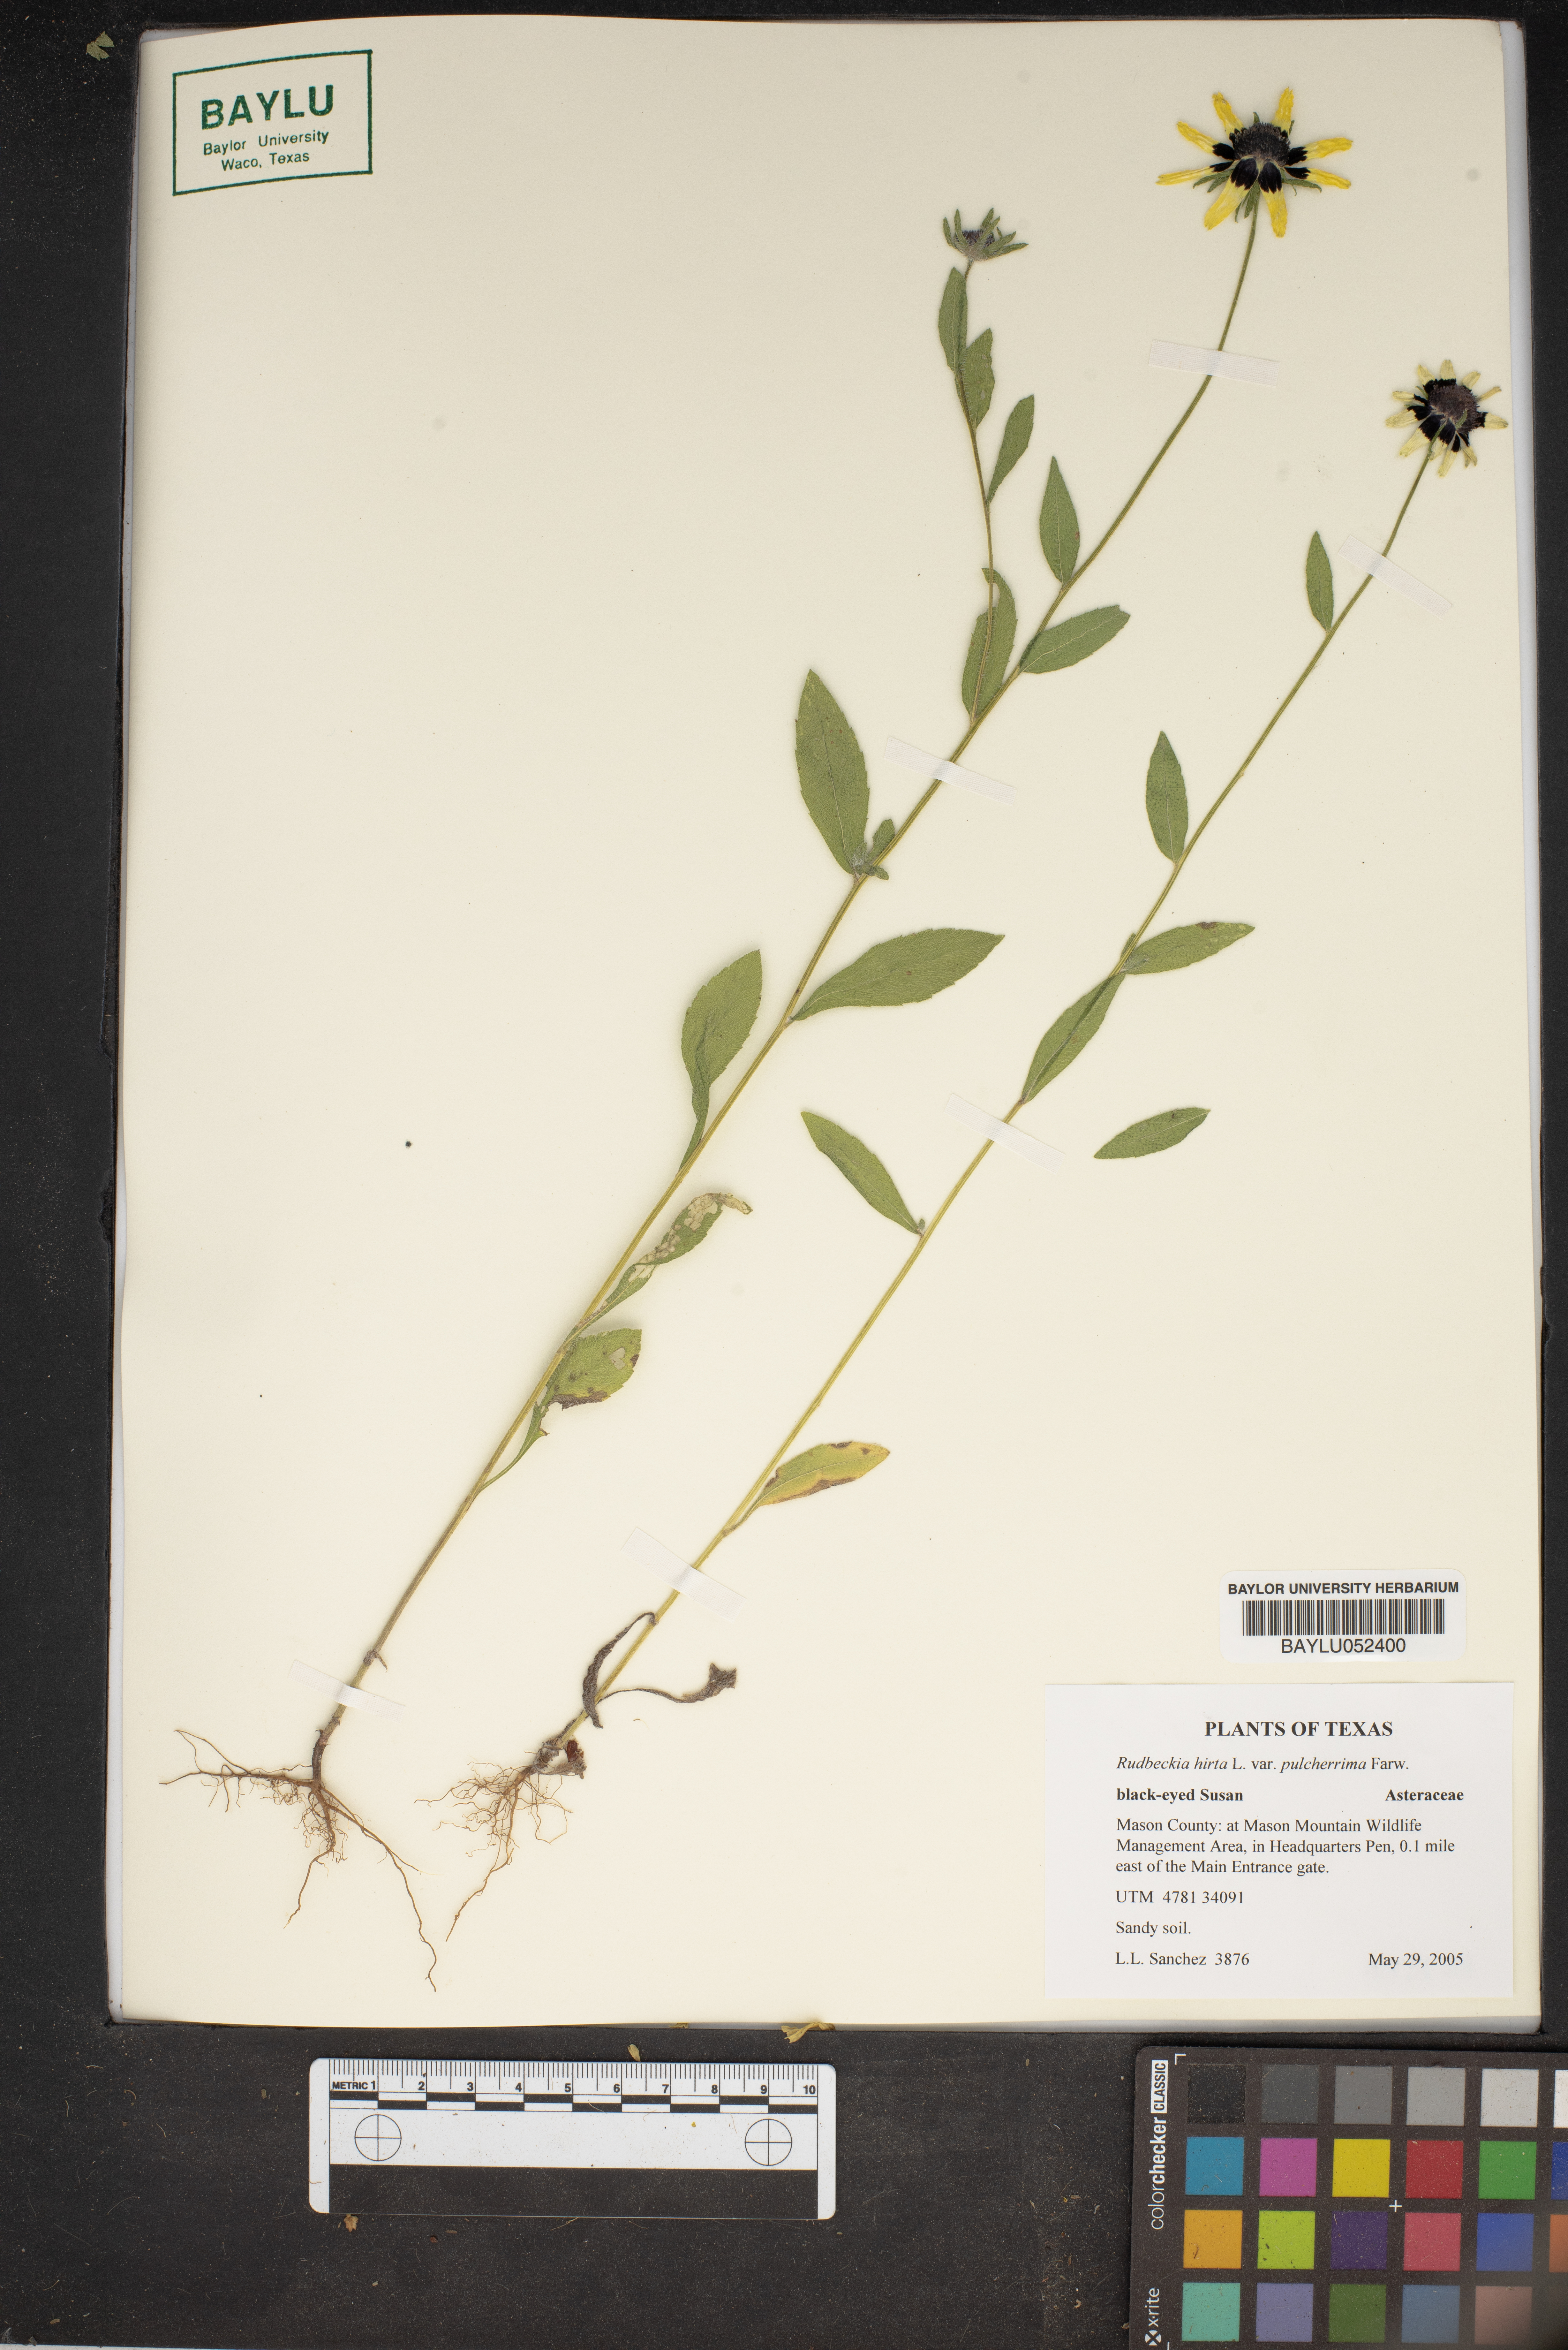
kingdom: Plantae
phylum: Tracheophyta
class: Magnoliopsida
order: Asterales
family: Asteraceae
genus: Rudbeckia
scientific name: Rudbeckia hirta
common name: Black-eyed-susan
